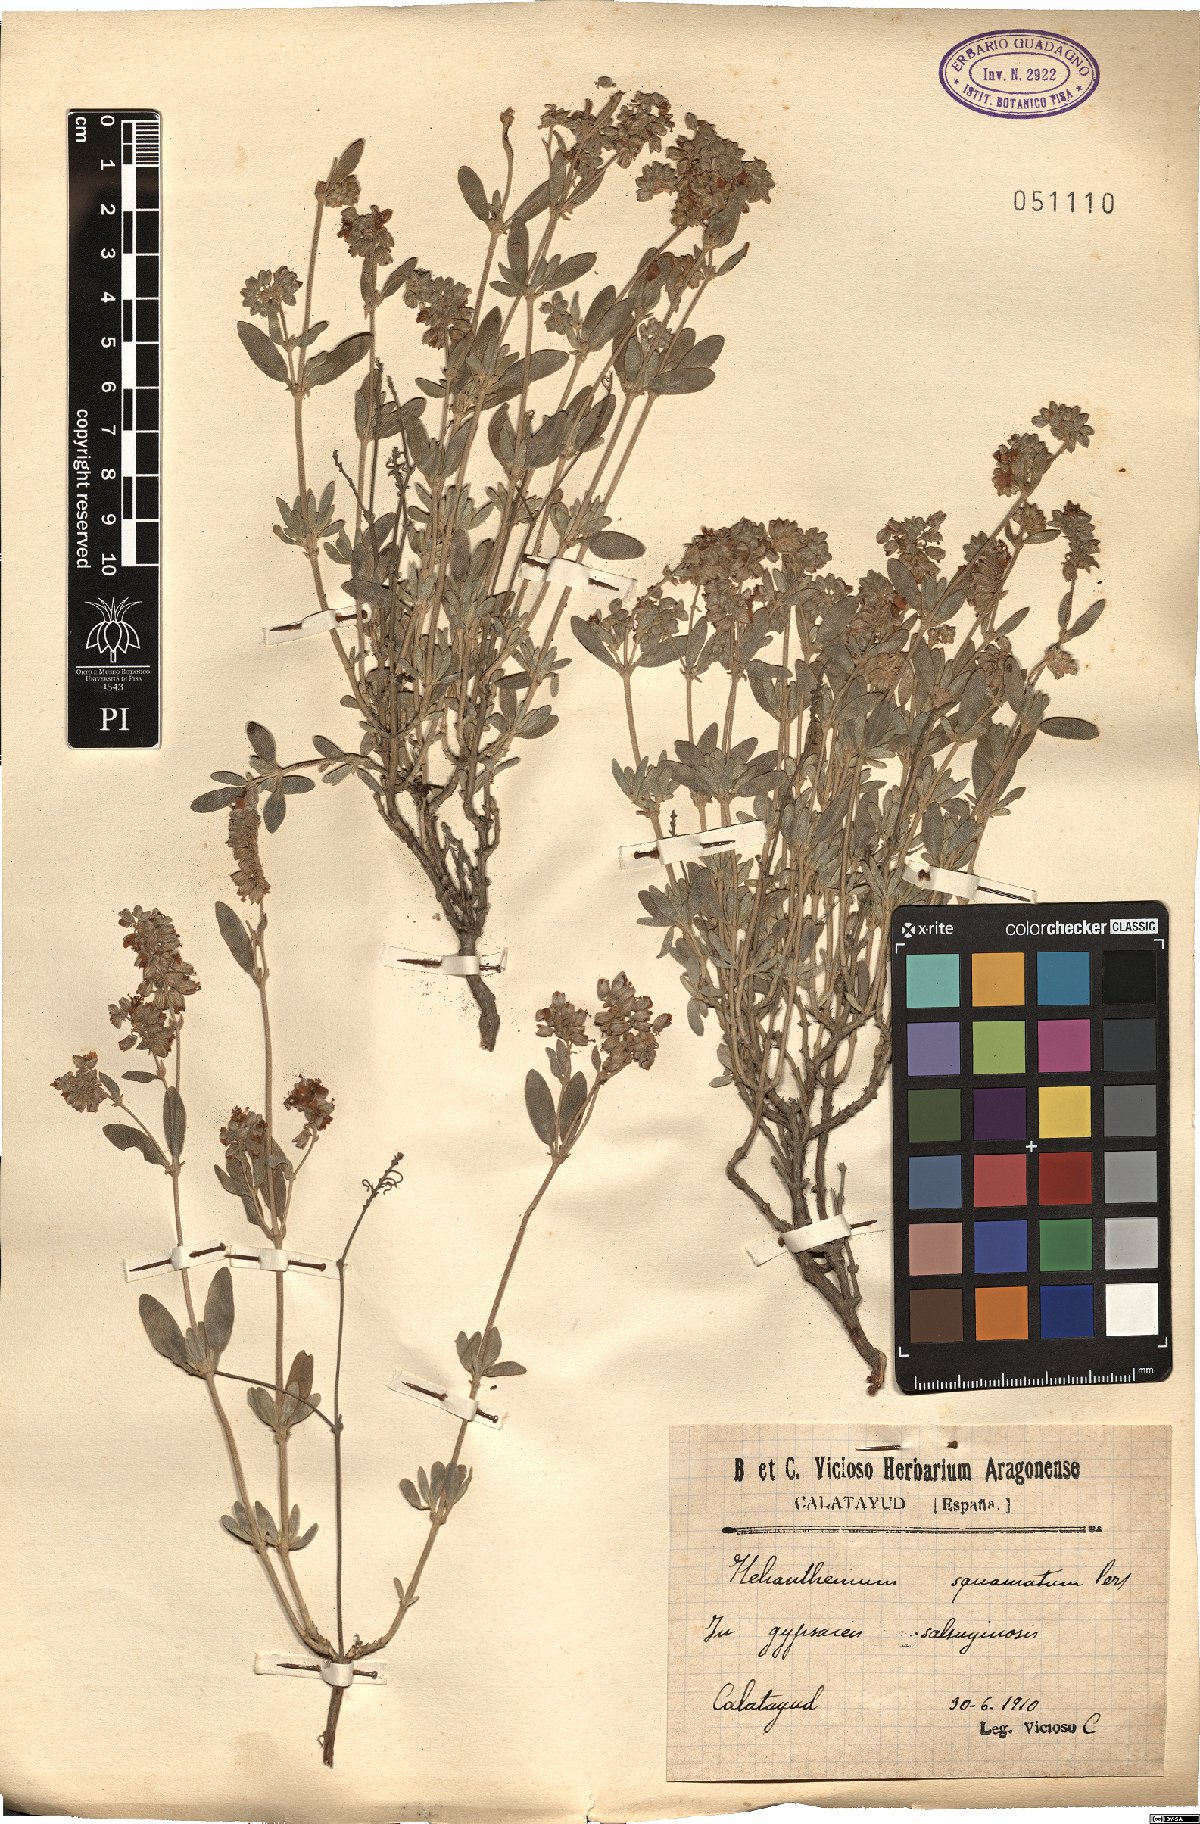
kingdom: Plantae
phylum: Tracheophyta
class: Magnoliopsida
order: Malvales
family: Cistaceae
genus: Helianthemum
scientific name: Helianthemum squamatum
